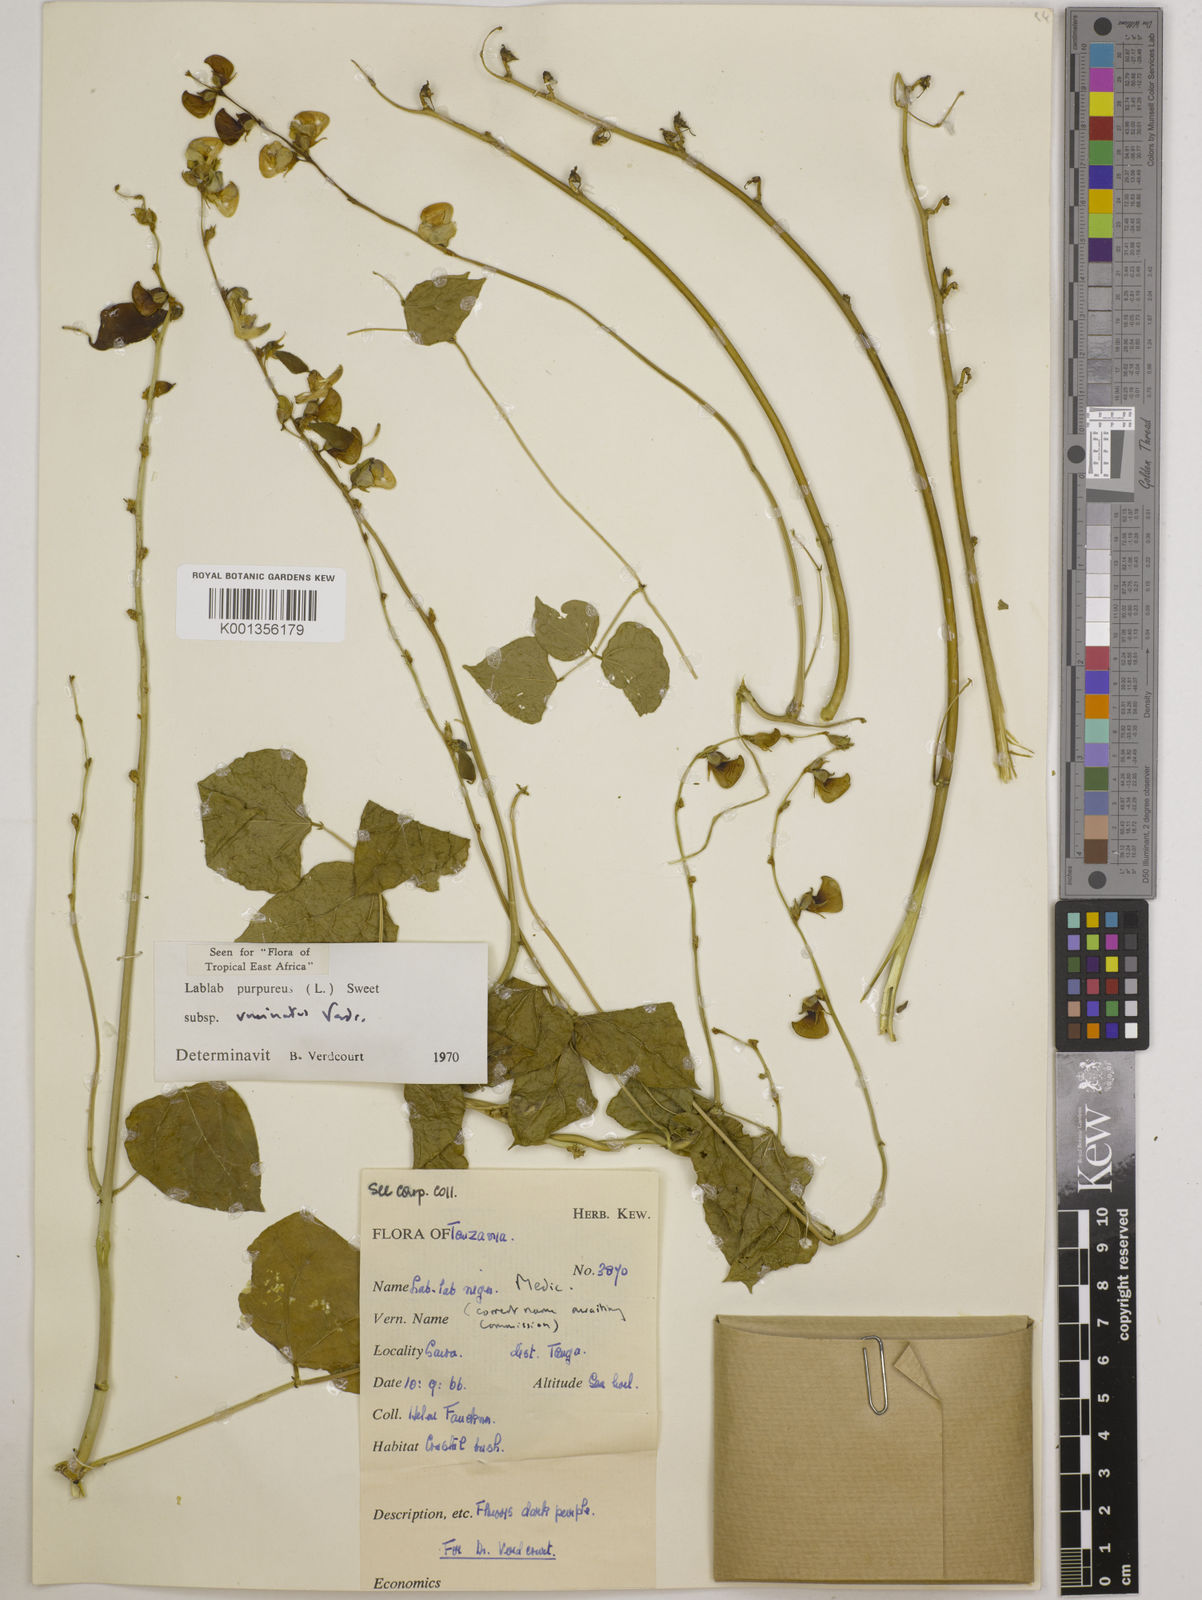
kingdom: Plantae
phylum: Tracheophyta
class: Magnoliopsida
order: Fabales
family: Fabaceae
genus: Lablab
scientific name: Lablab purpureus
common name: Lablab-bean
